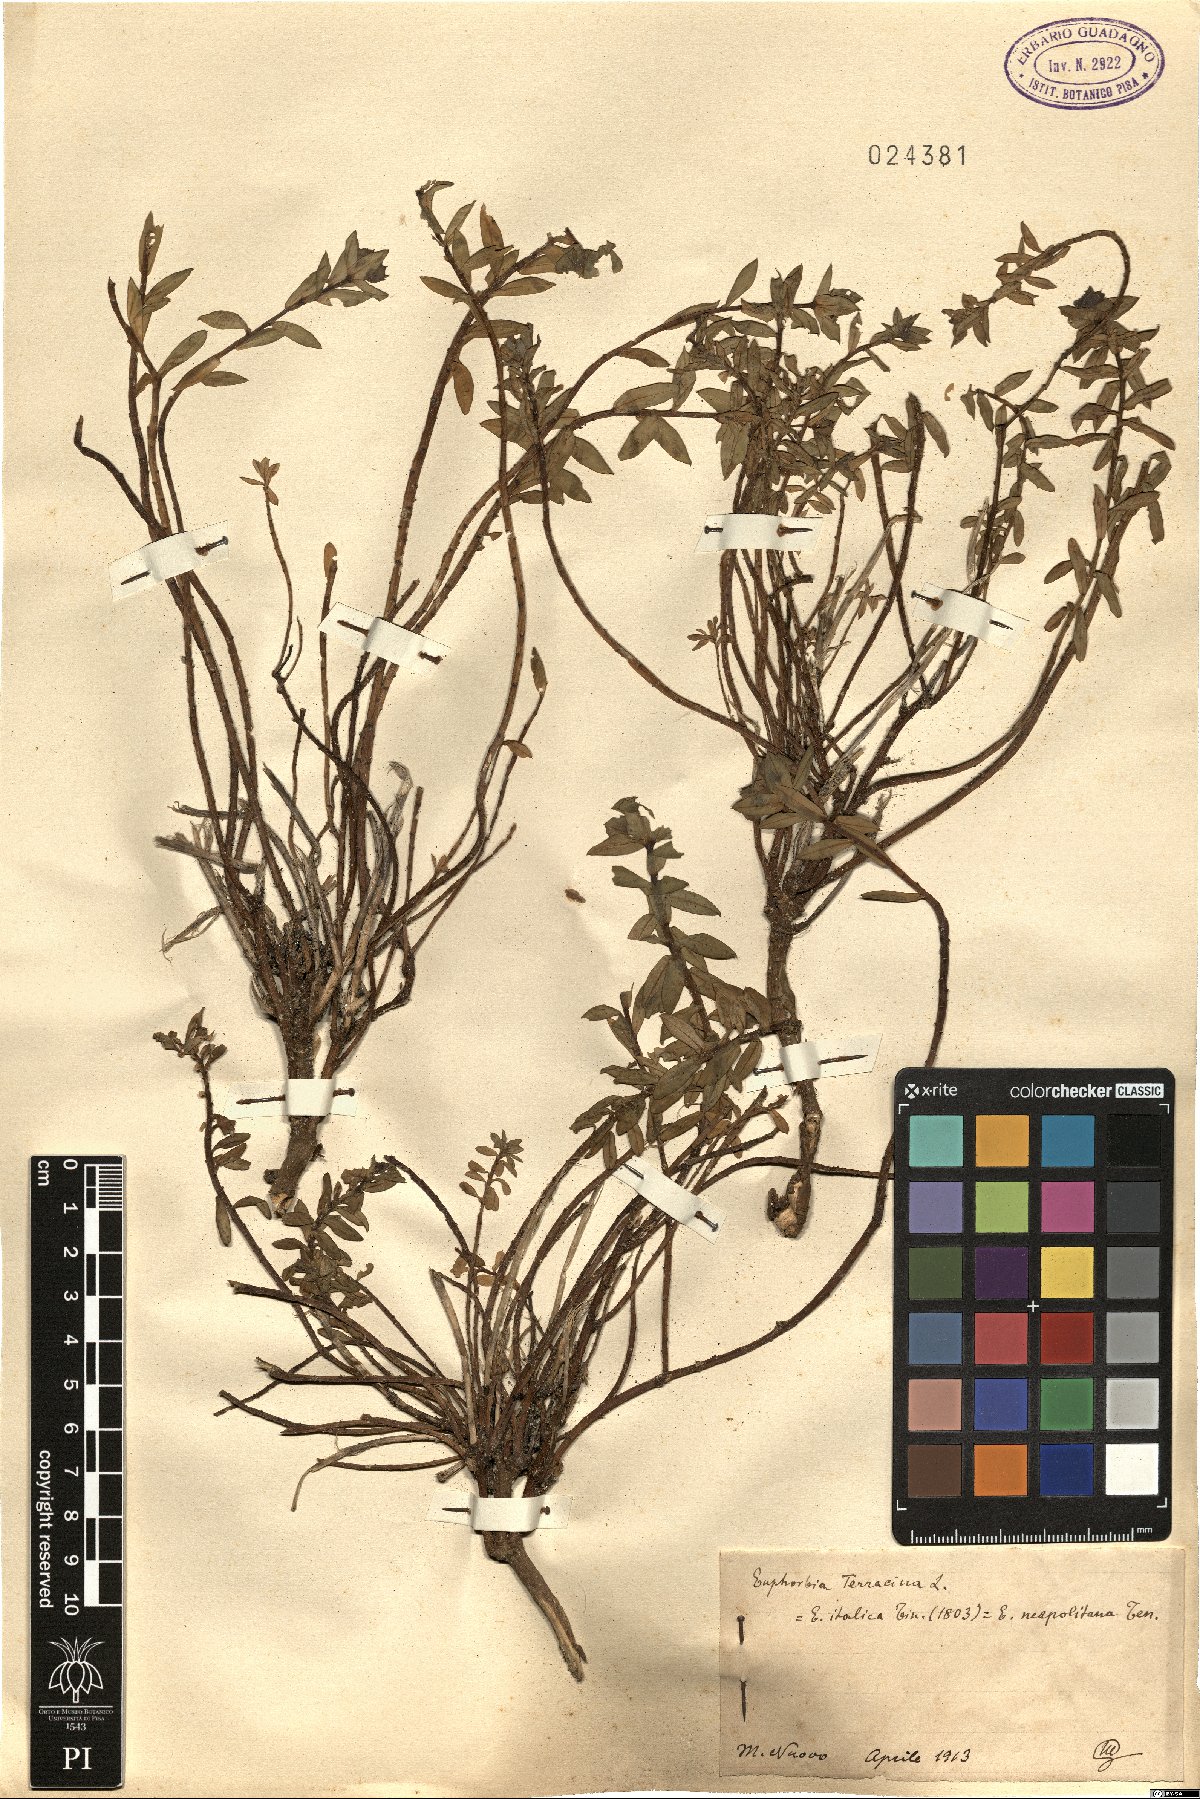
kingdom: Plantae
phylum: Tracheophyta
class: Magnoliopsida
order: Malpighiales
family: Euphorbiaceae
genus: Euphorbia
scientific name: Euphorbia terracina
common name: Geraldton carnation weed
